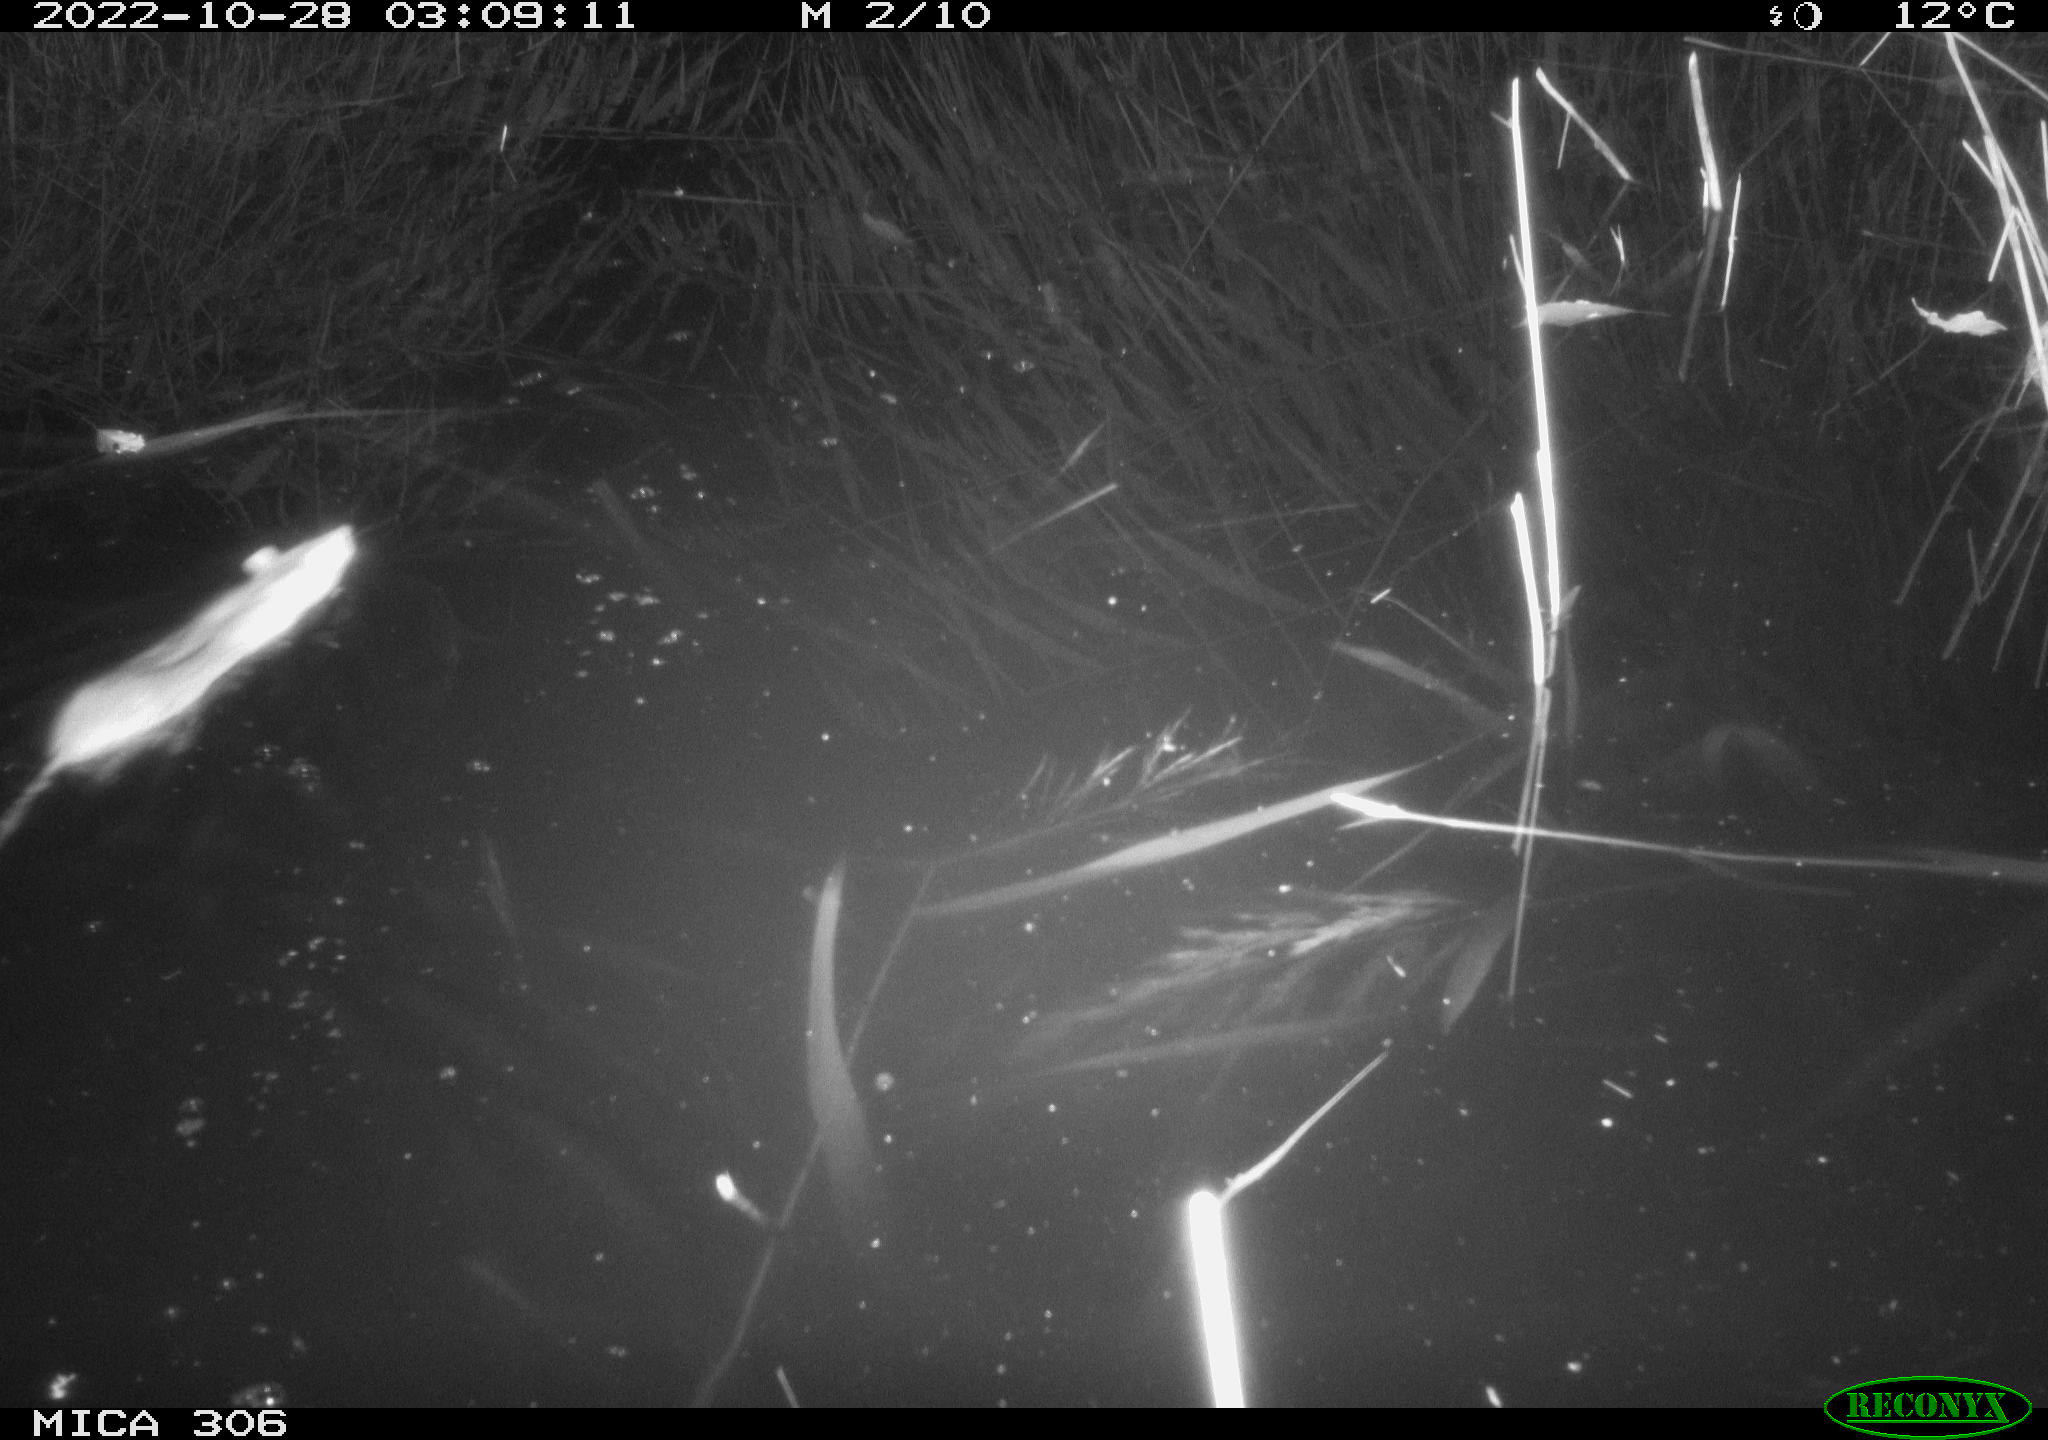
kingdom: Animalia
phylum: Chordata
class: Mammalia
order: Rodentia
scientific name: Rodentia
